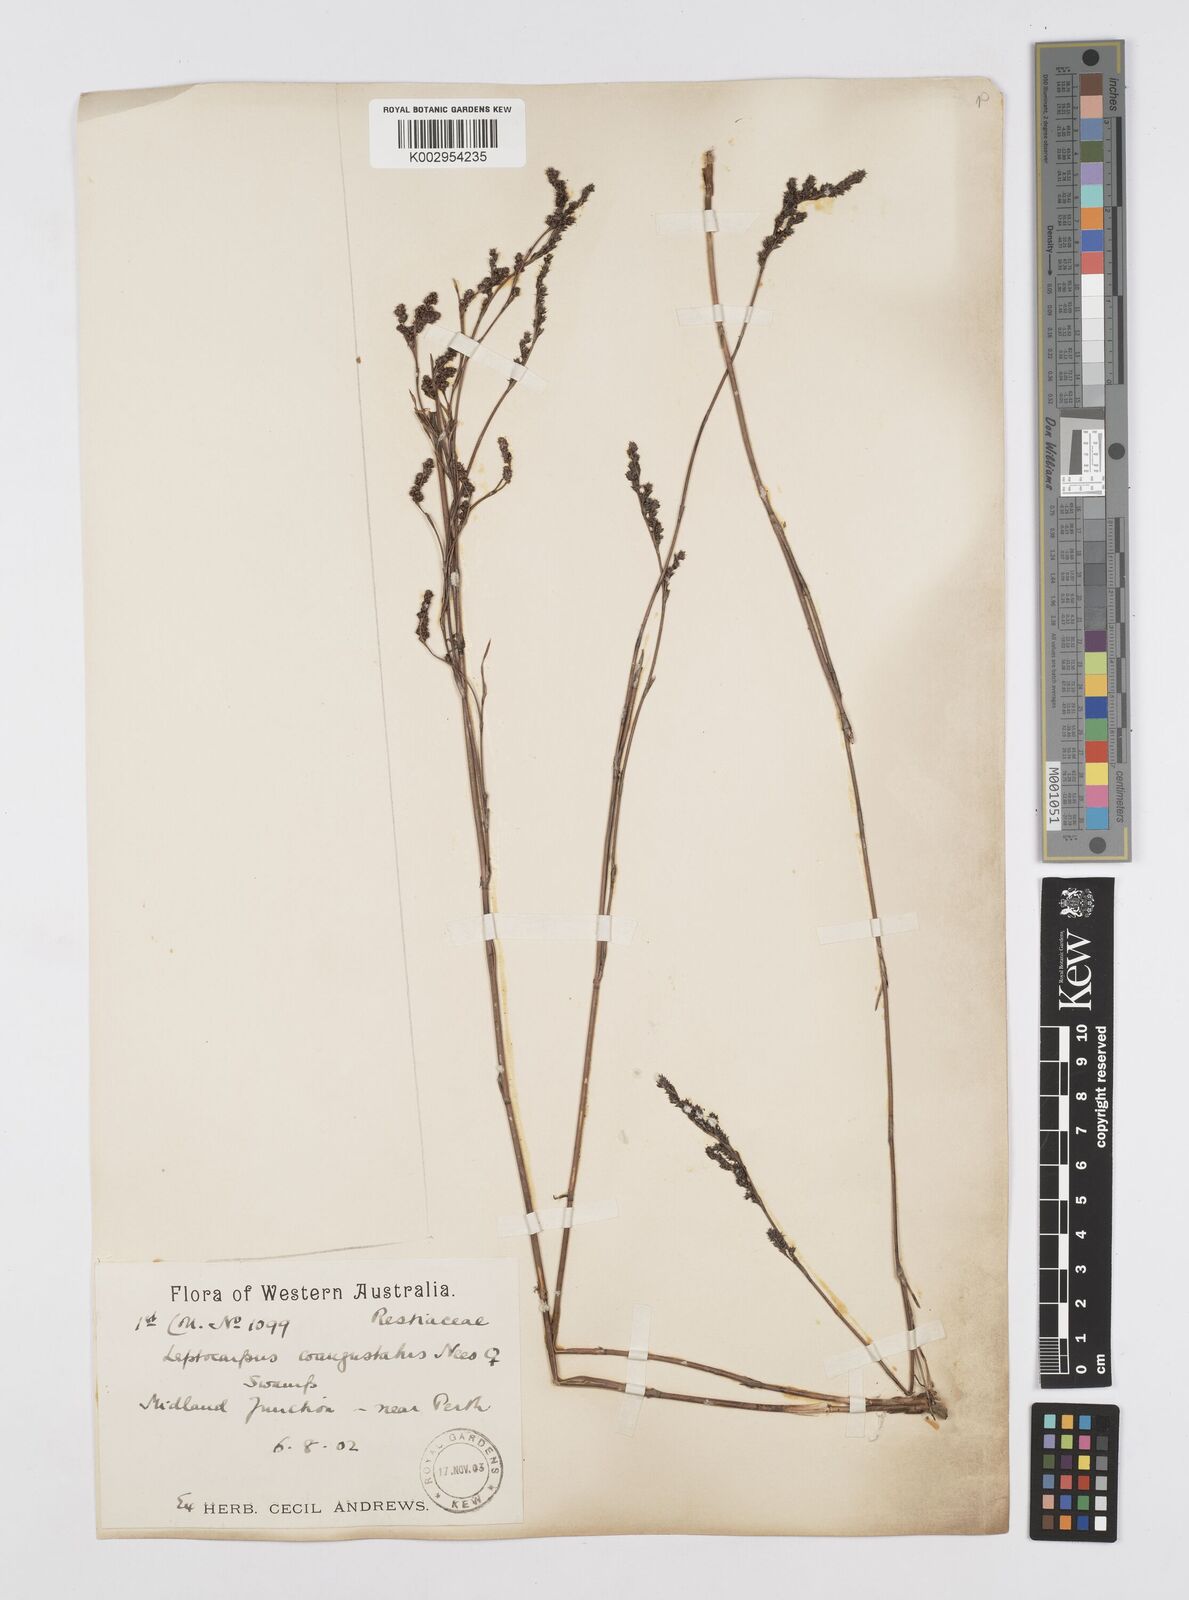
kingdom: Plantae
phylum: Tracheophyta
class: Liliopsida
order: Poales
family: Restionaceae
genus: Leptocarpus
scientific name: Leptocarpus coangustatus
